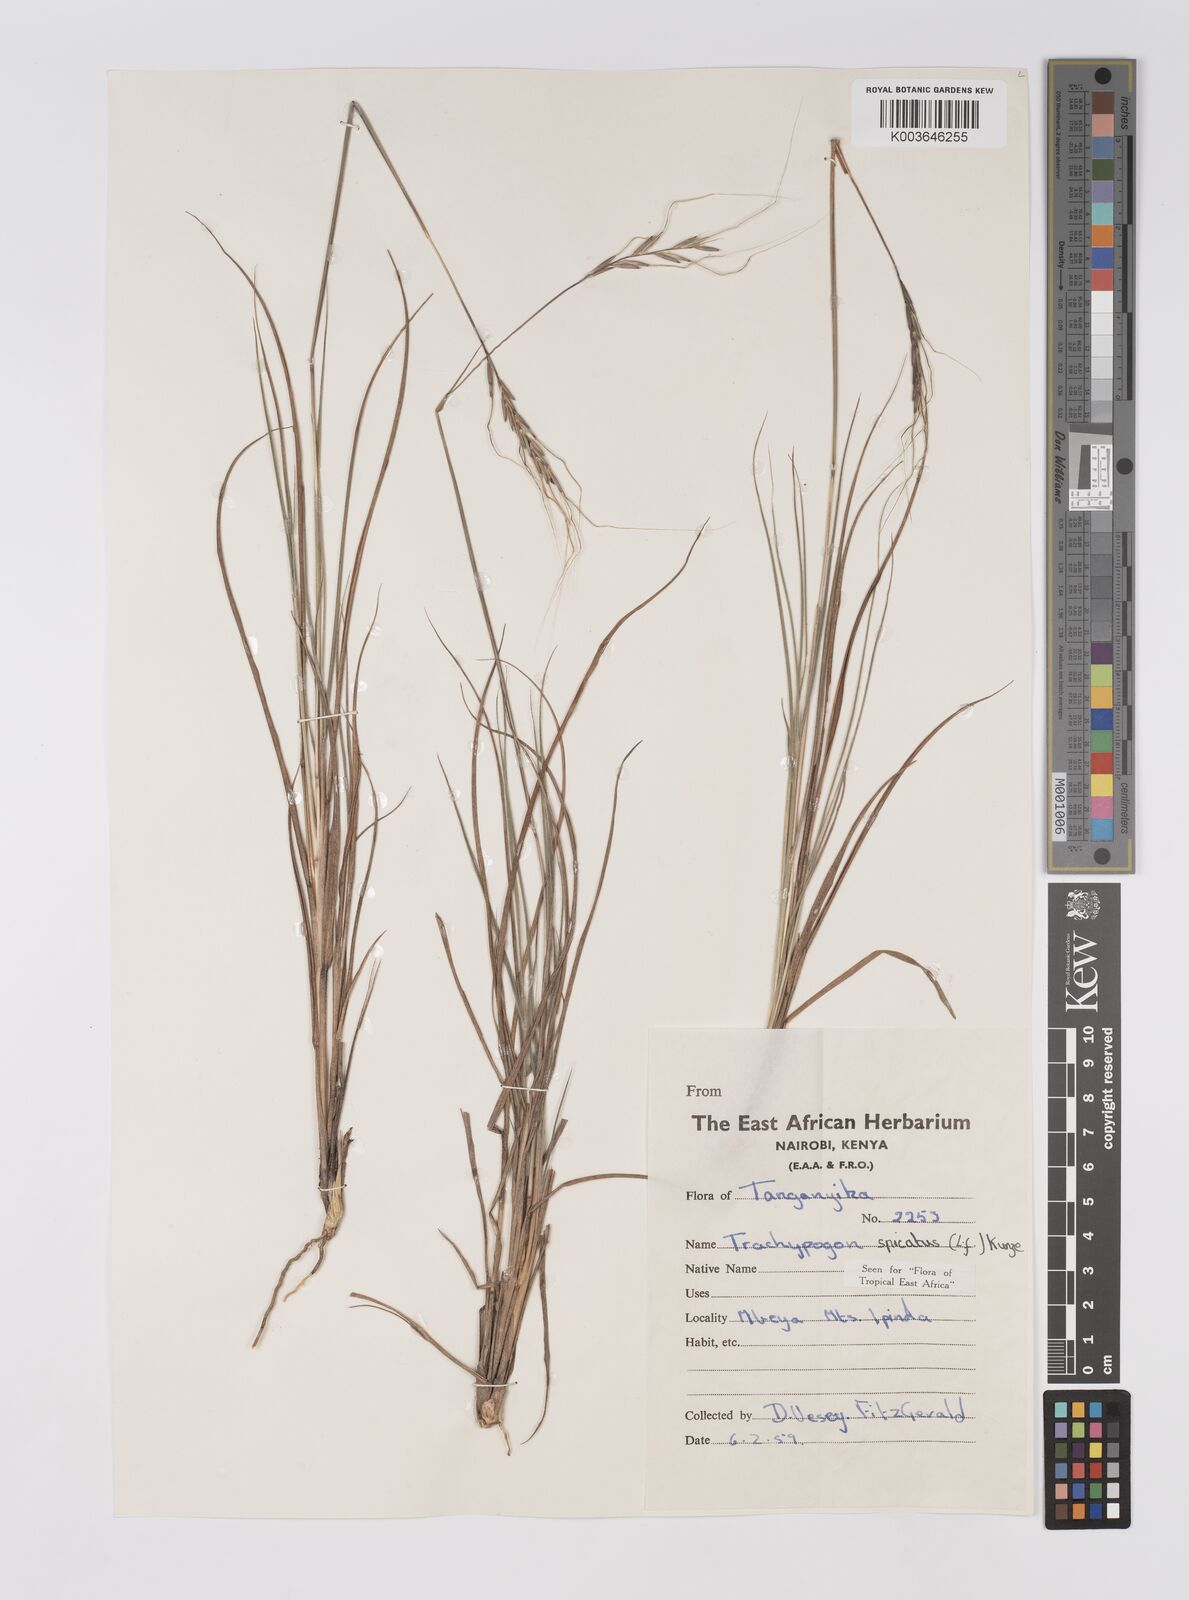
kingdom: Plantae
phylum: Tracheophyta
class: Liliopsida
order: Poales
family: Poaceae
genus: Trachypogon
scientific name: Trachypogon spicatus
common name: Crinkle-awn
